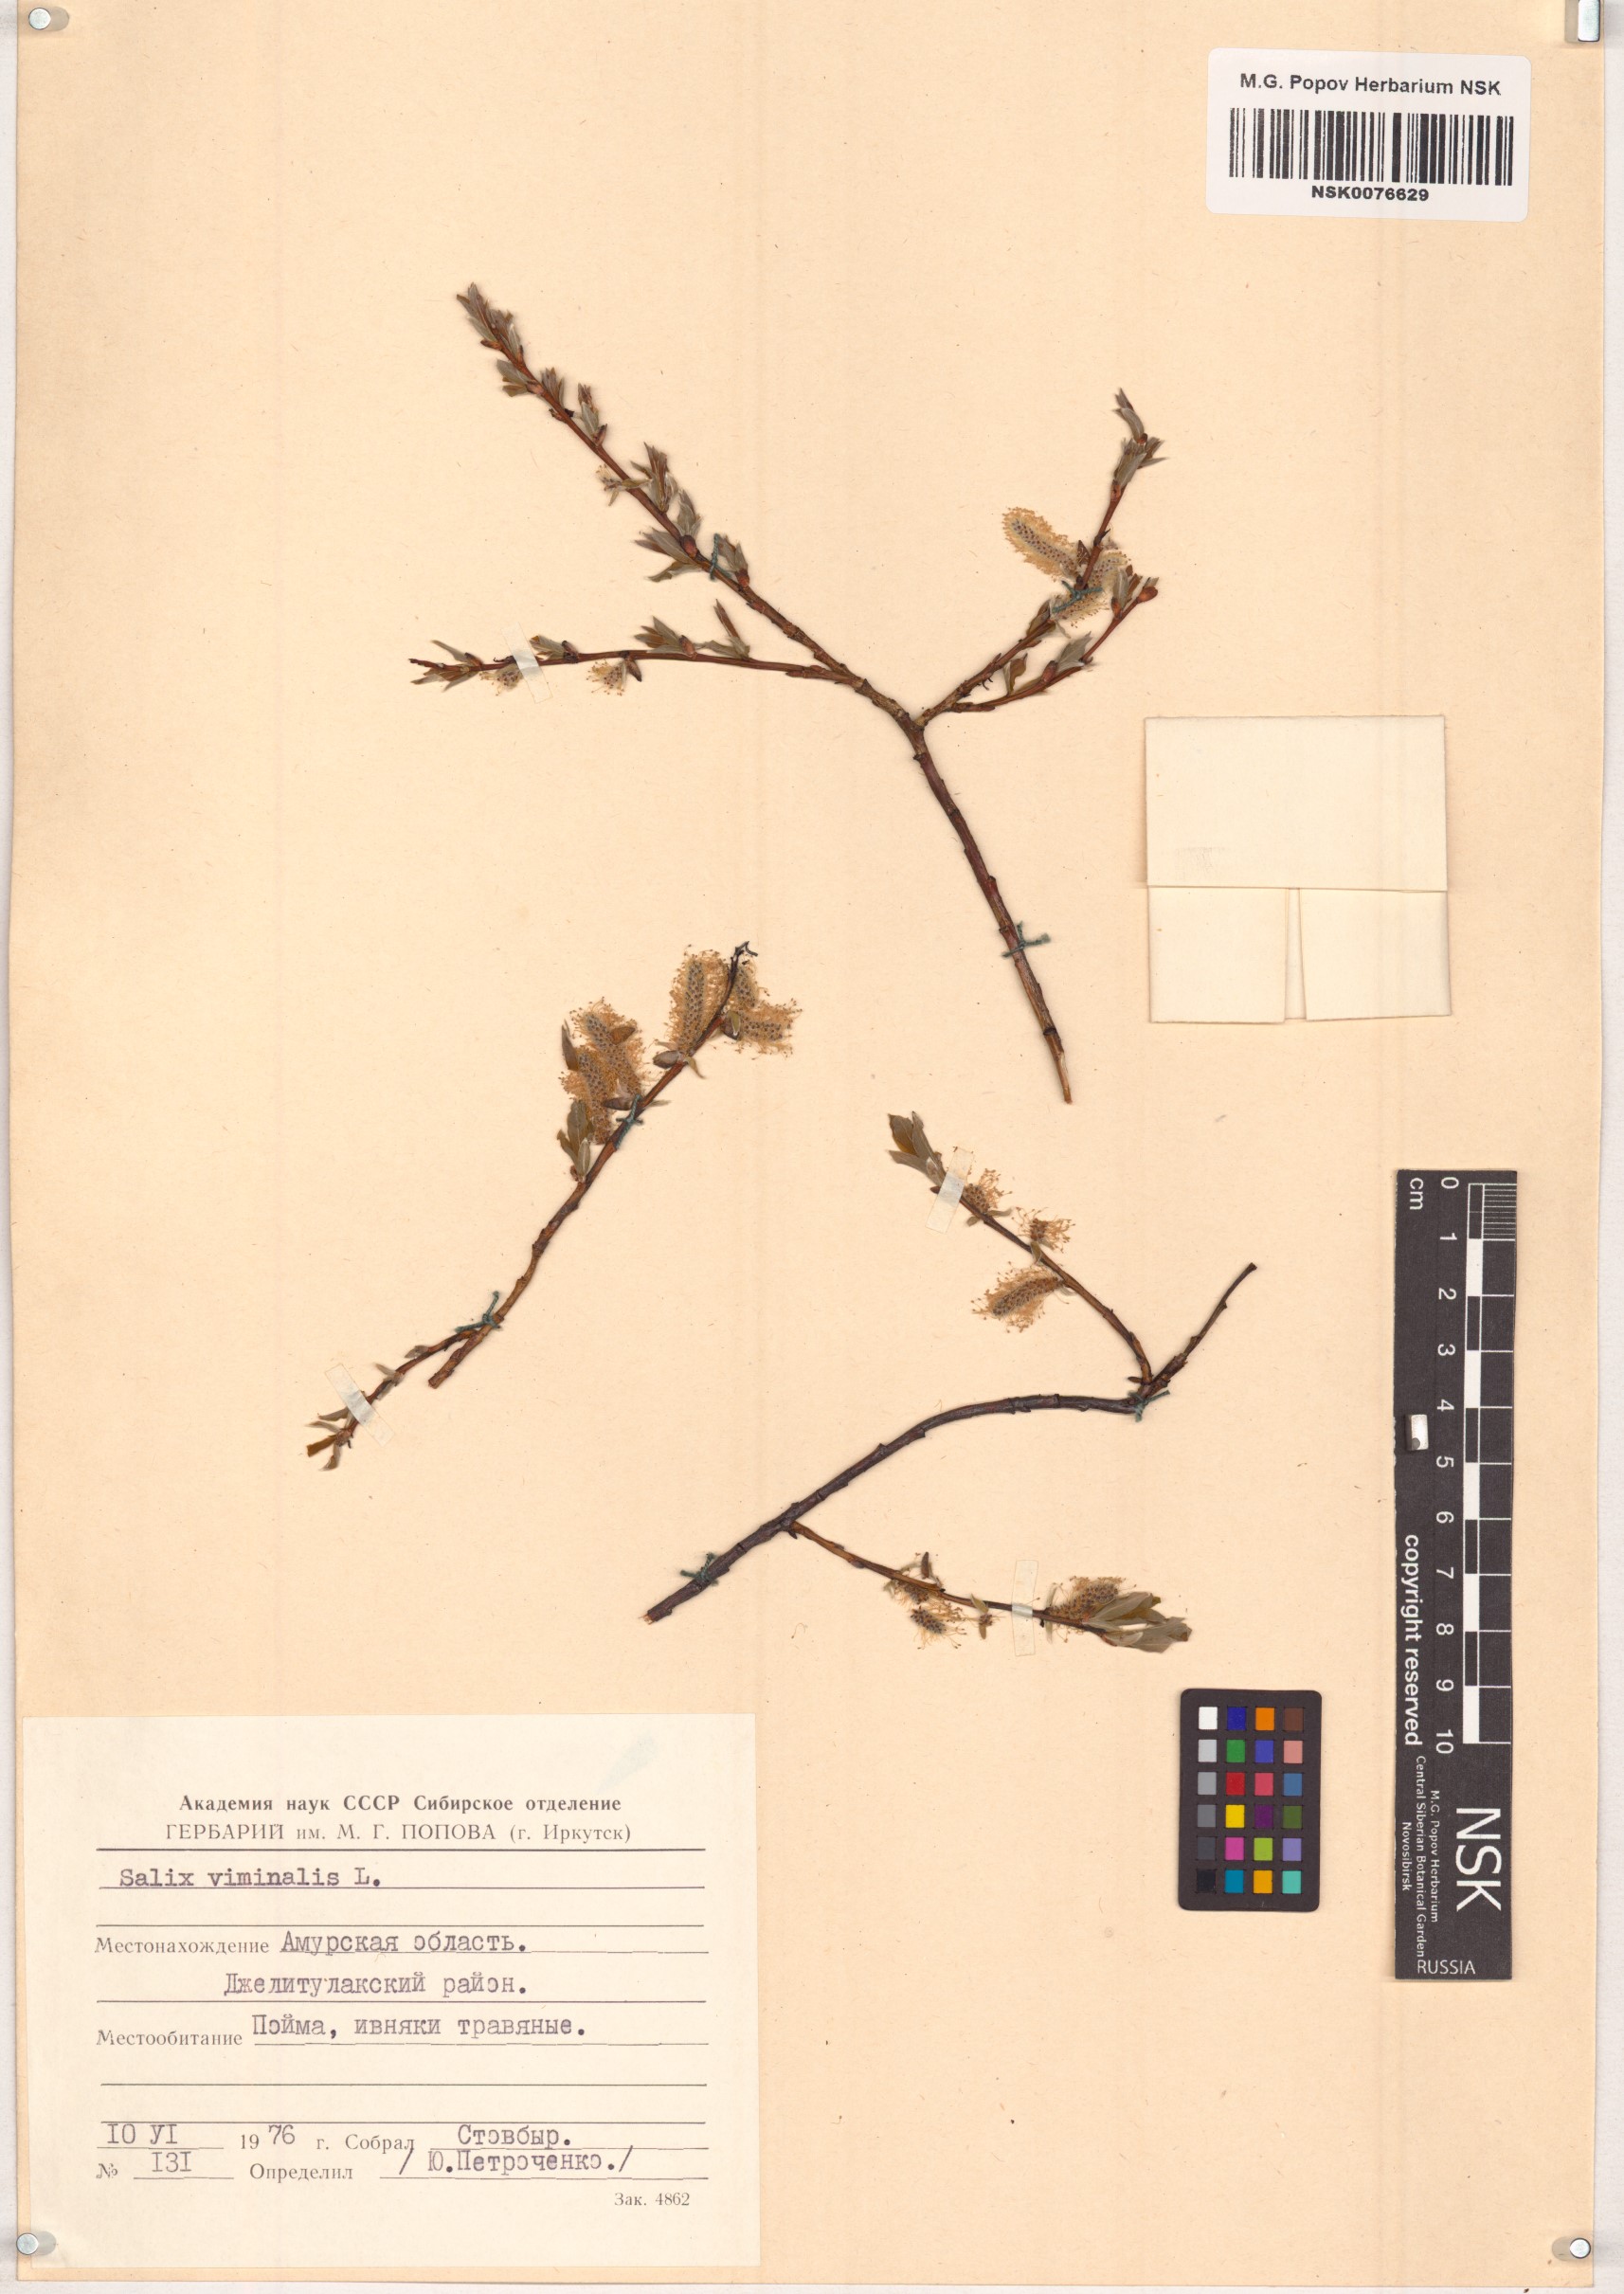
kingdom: Plantae
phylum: Tracheophyta
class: Magnoliopsida
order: Malpighiales
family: Salicaceae
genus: Salix
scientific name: Salix viminalis
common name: Osier
